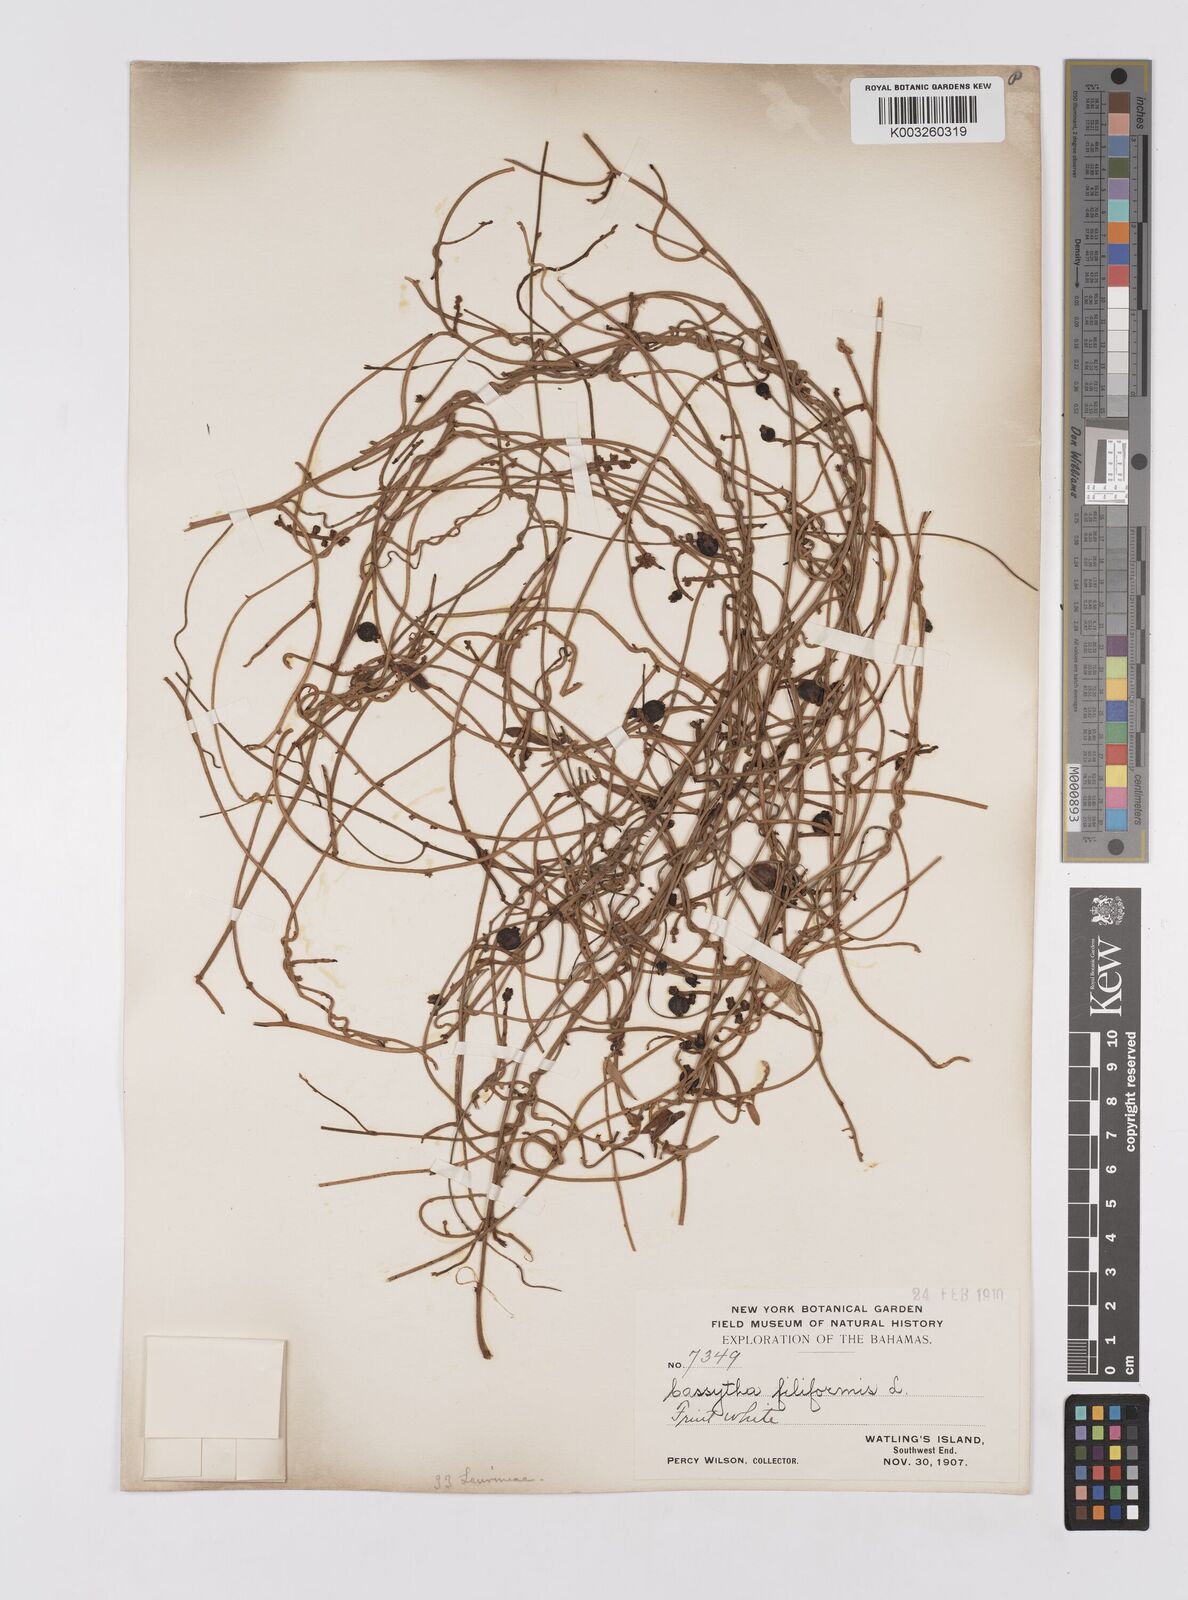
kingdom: Plantae
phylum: Tracheophyta
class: Magnoliopsida
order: Laurales
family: Lauraceae
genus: Cassytha
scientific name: Cassytha filiformis
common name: Dodder-laurel
